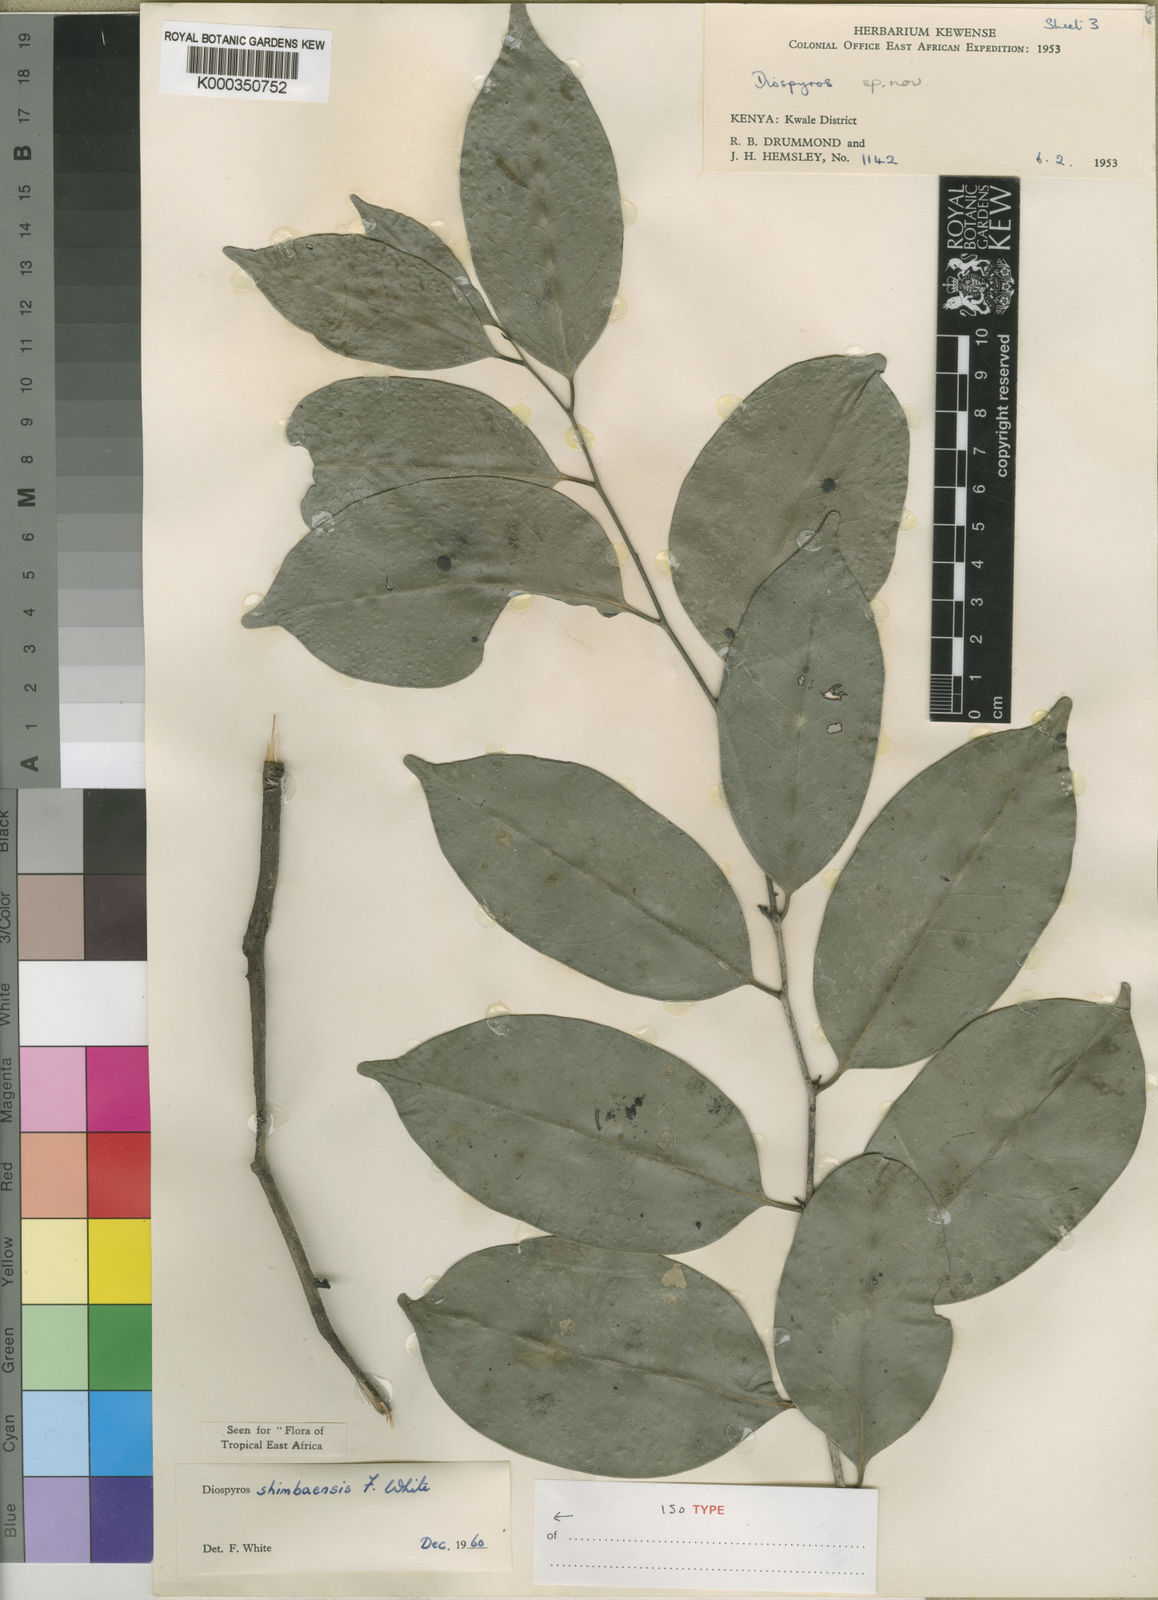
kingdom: Plantae
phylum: Tracheophyta
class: Magnoliopsida
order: Ericales
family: Ebenaceae
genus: Diospyros
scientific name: Diospyros shimbaensis
